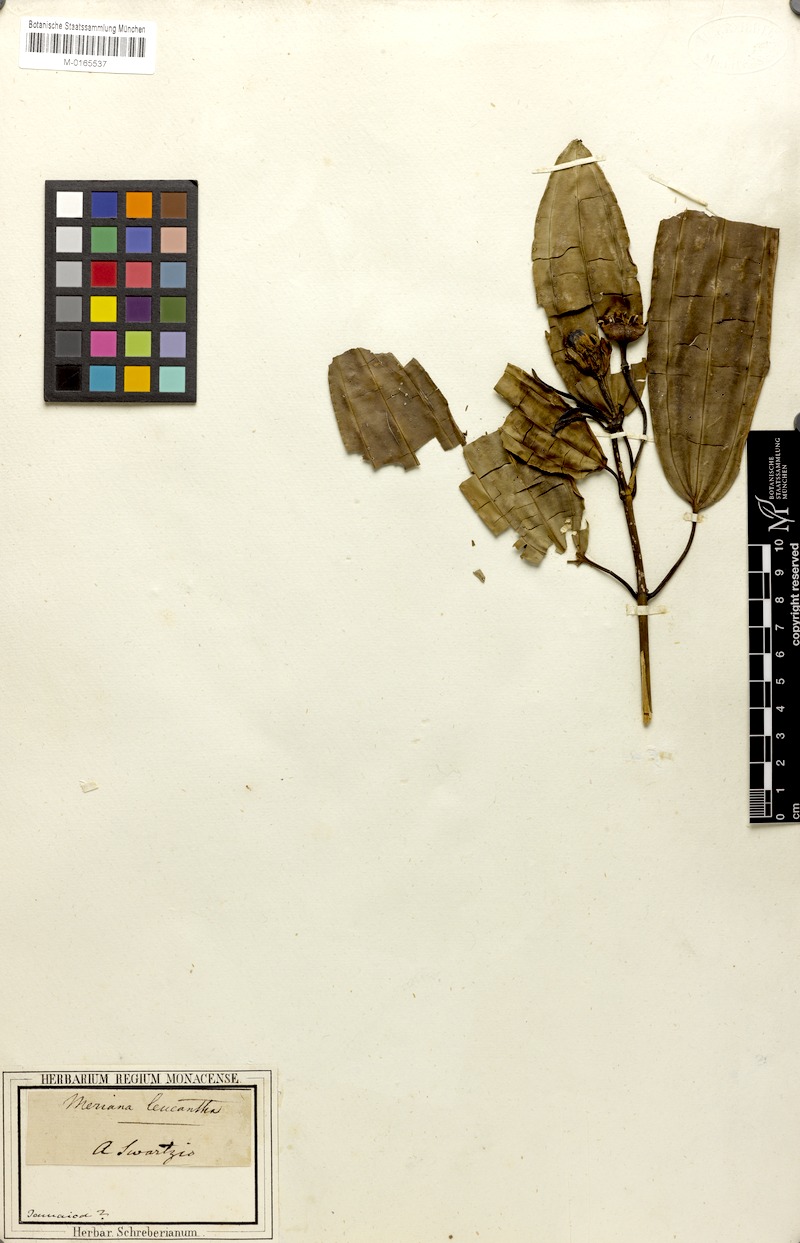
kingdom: Plantae
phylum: Tracheophyta
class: Magnoliopsida
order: Myrtales
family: Melastomataceae
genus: Meriania
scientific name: Meriania leucantha
